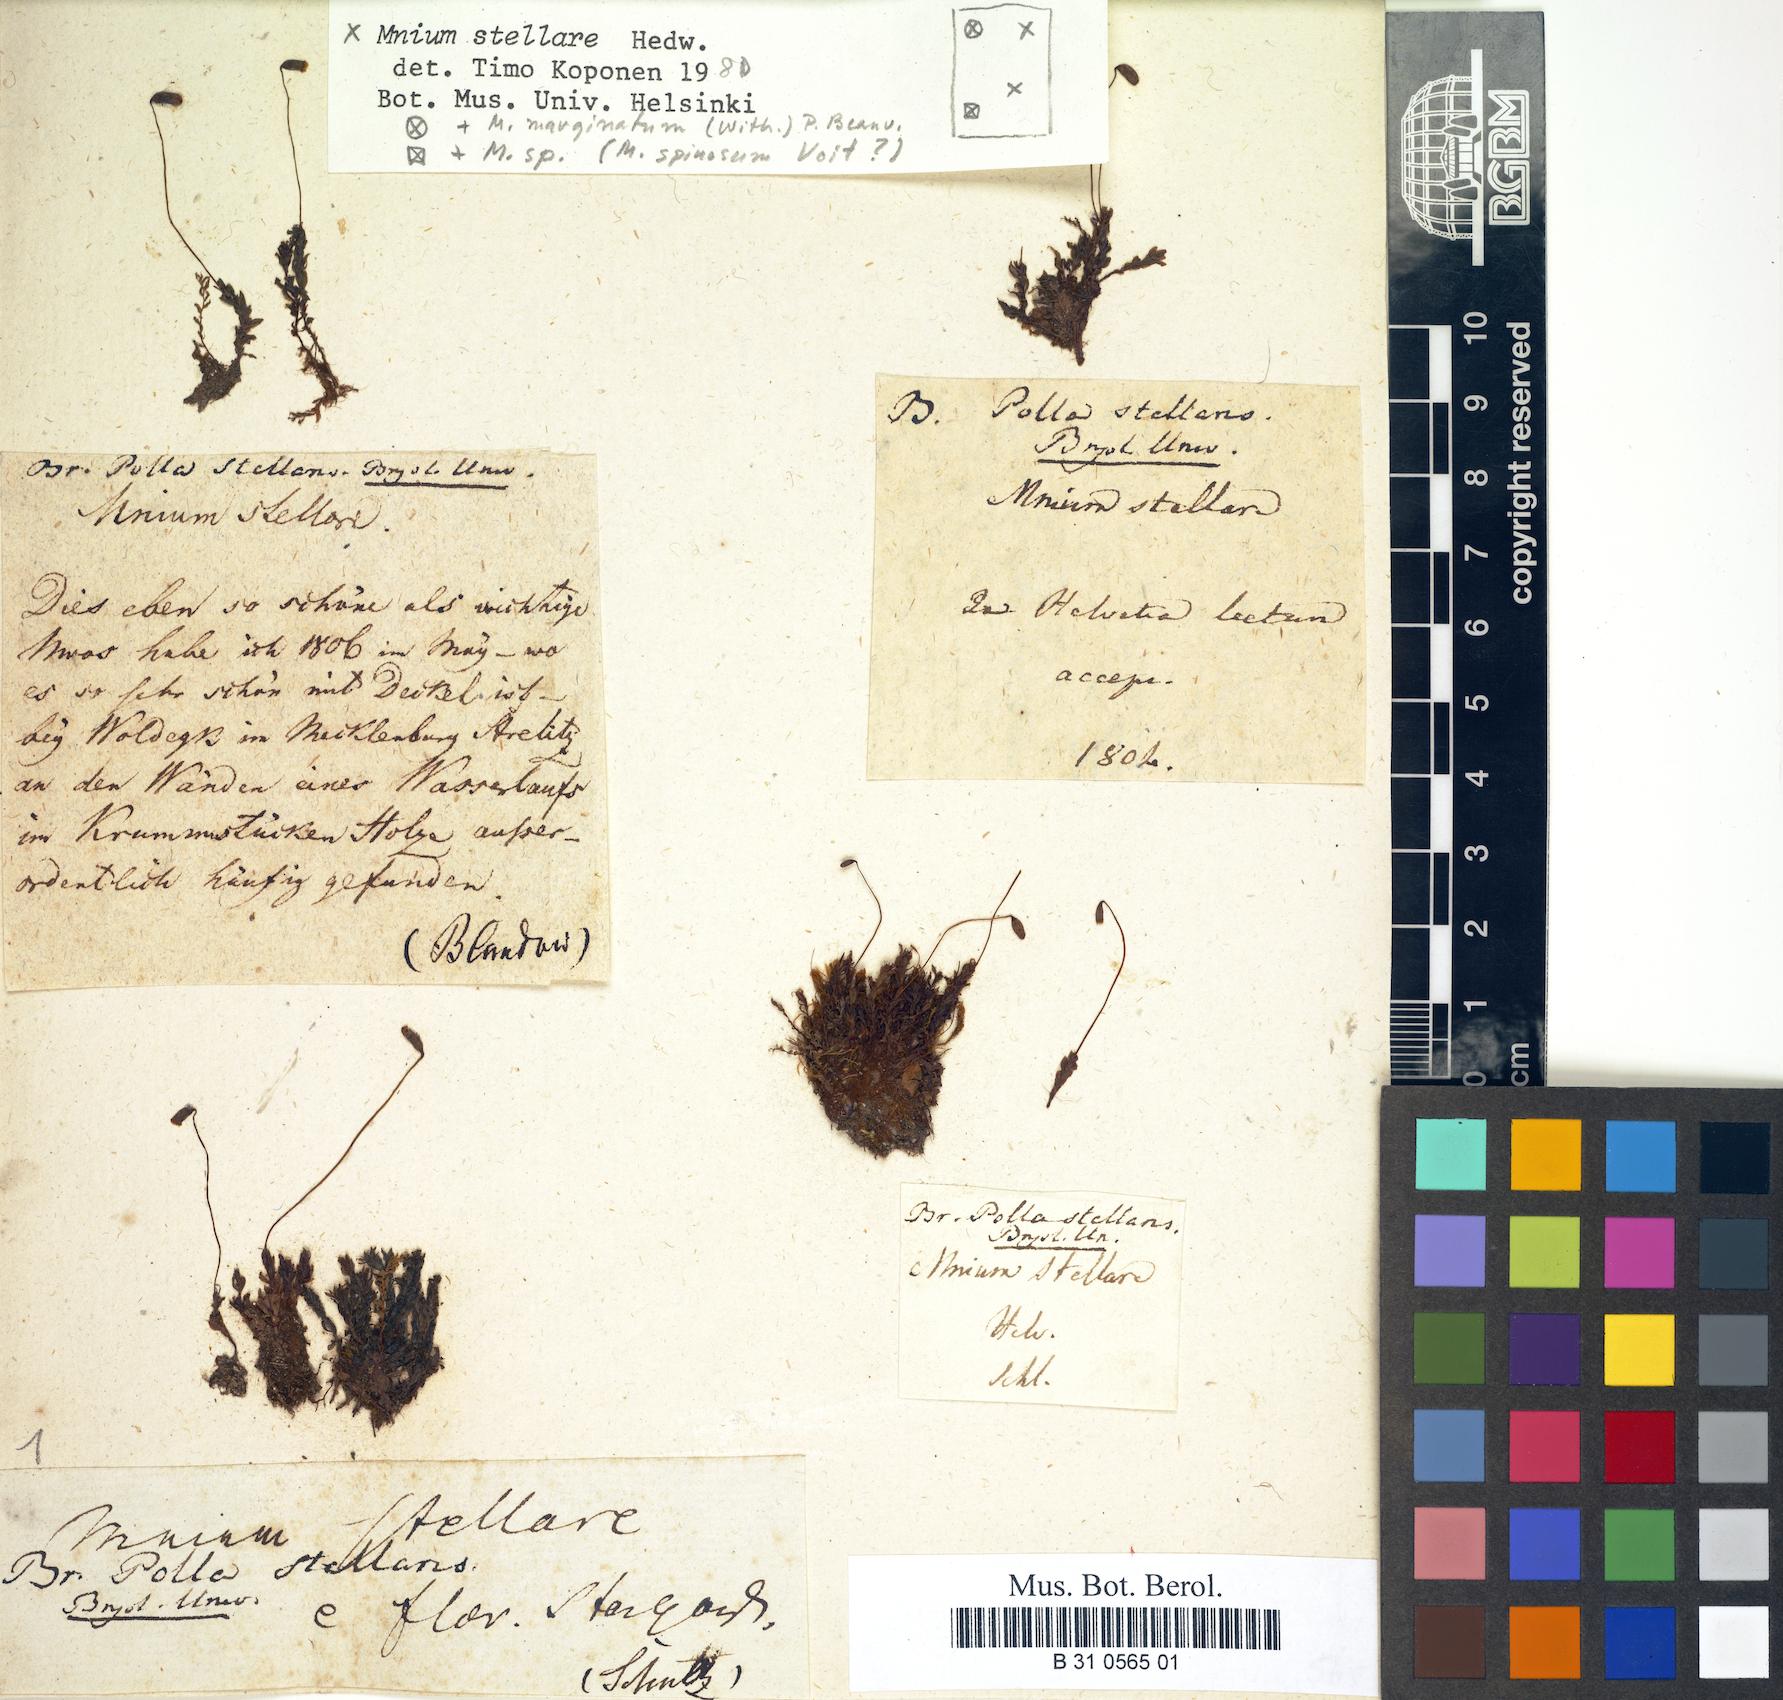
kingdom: Plantae
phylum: Bryophyta
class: Bryopsida
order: Bryales
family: Mniaceae
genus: Mnium
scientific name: Mnium stellare
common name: Star leafy moss
